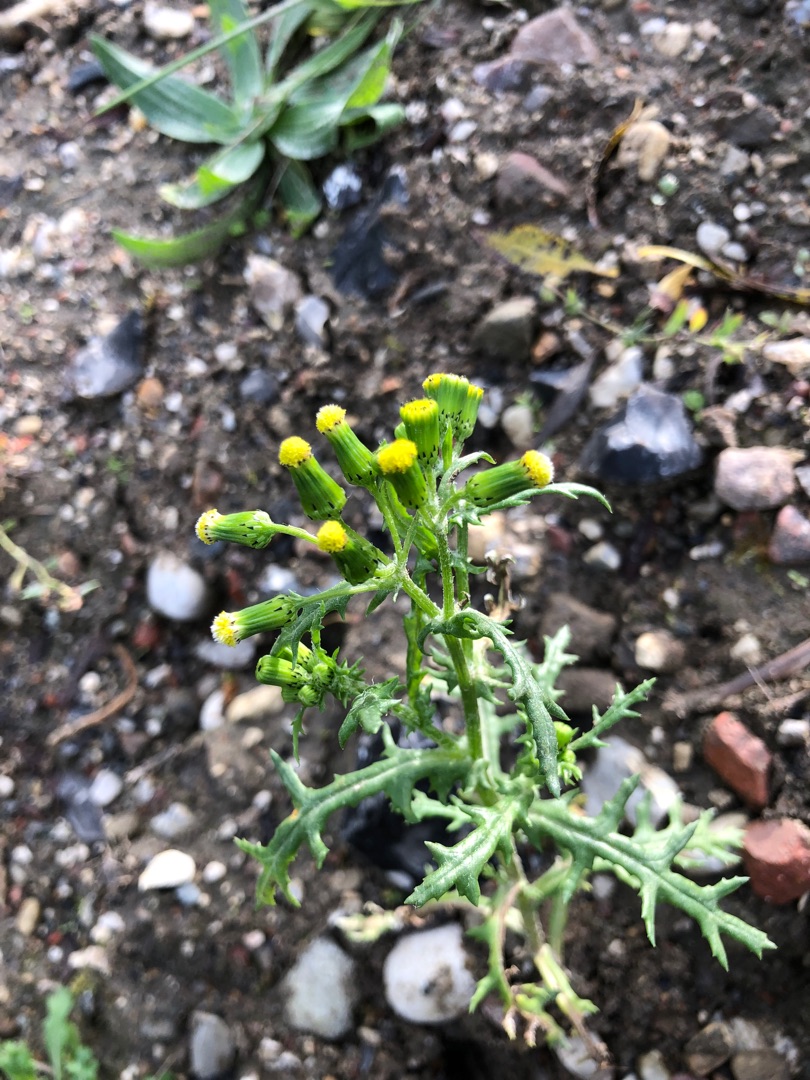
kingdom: Plantae
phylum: Tracheophyta
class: Magnoliopsida
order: Asterales
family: Asteraceae
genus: Senecio
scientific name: Senecio vulgaris
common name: Almindelig brandbæger
